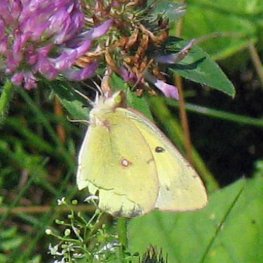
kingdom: Animalia
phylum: Arthropoda
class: Insecta
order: Lepidoptera
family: Pieridae
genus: Colias
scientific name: Colias philodice
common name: Clouded Sulphur
